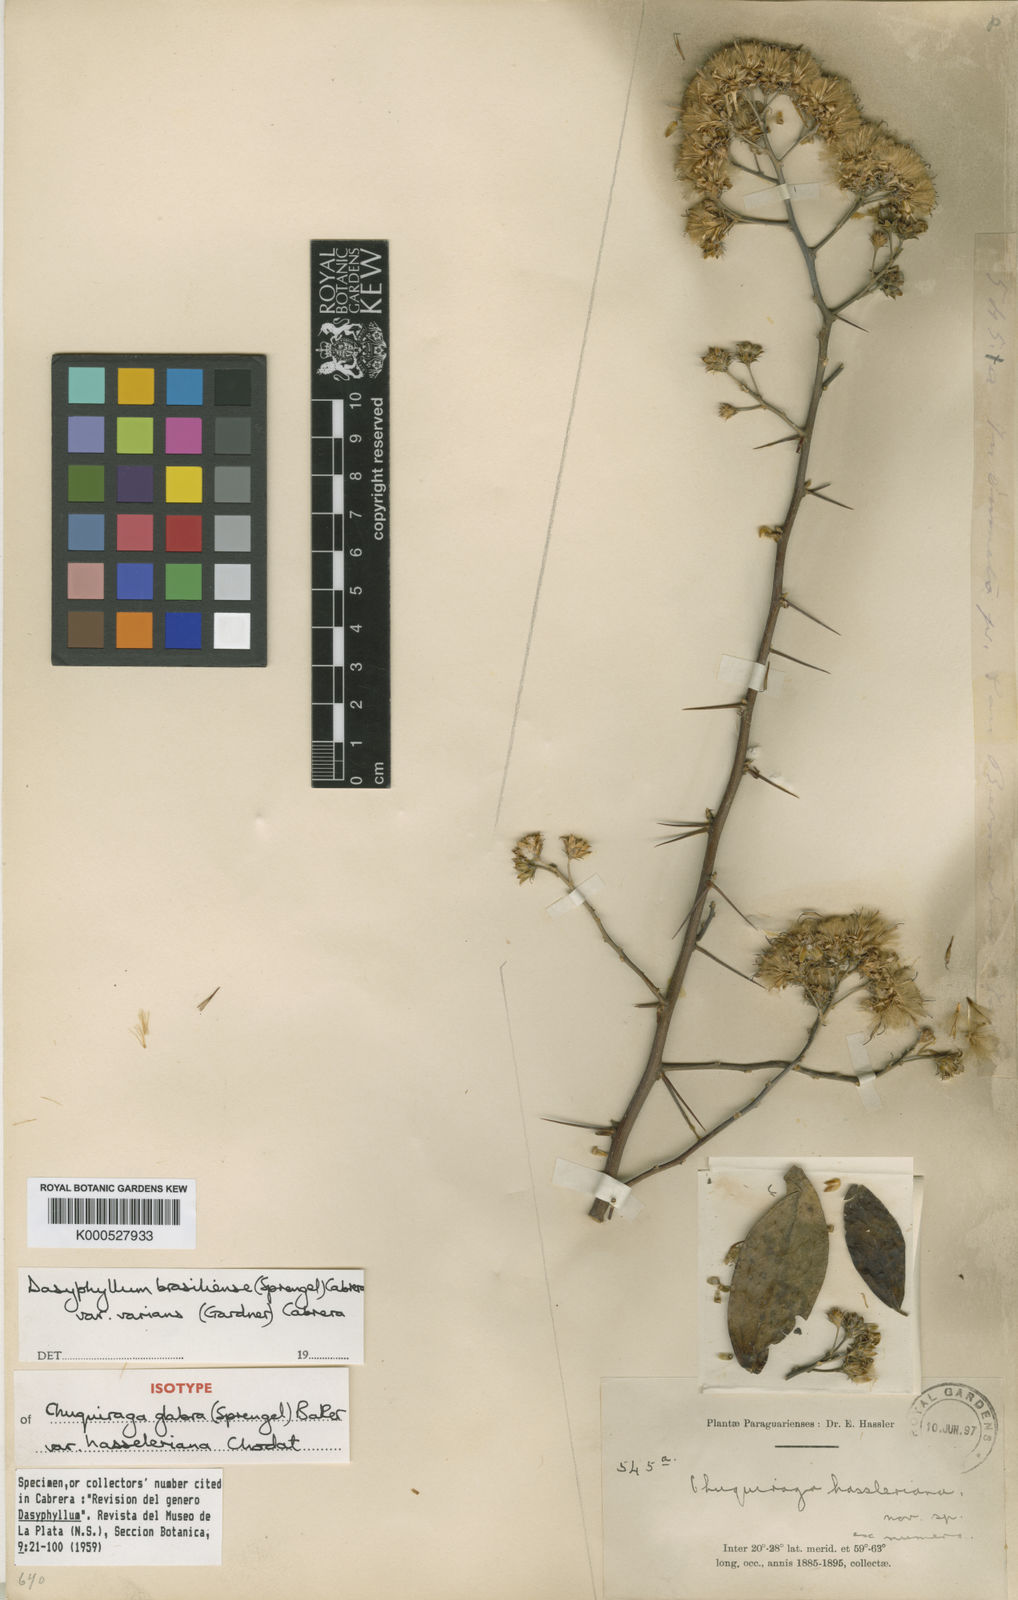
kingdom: Plantae
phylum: Tracheophyta
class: Magnoliopsida
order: Asterales
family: Asteraceae
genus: Dasyphyllum
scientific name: Dasyphyllum varians
